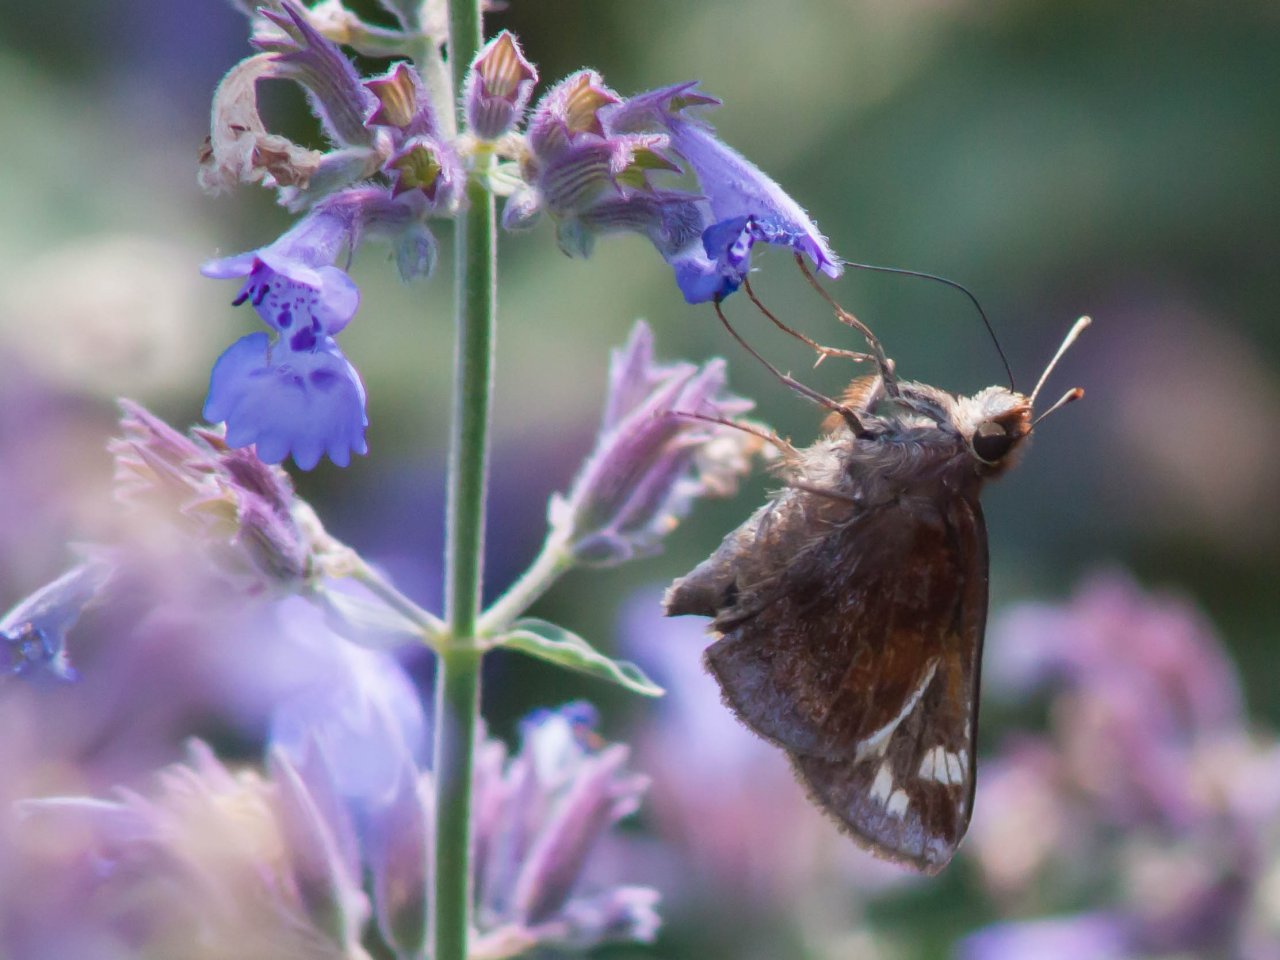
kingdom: Animalia
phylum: Arthropoda
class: Insecta
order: Lepidoptera
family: Hesperiidae
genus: Lon
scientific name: Lon zabulon
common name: Zabulon Skipper
